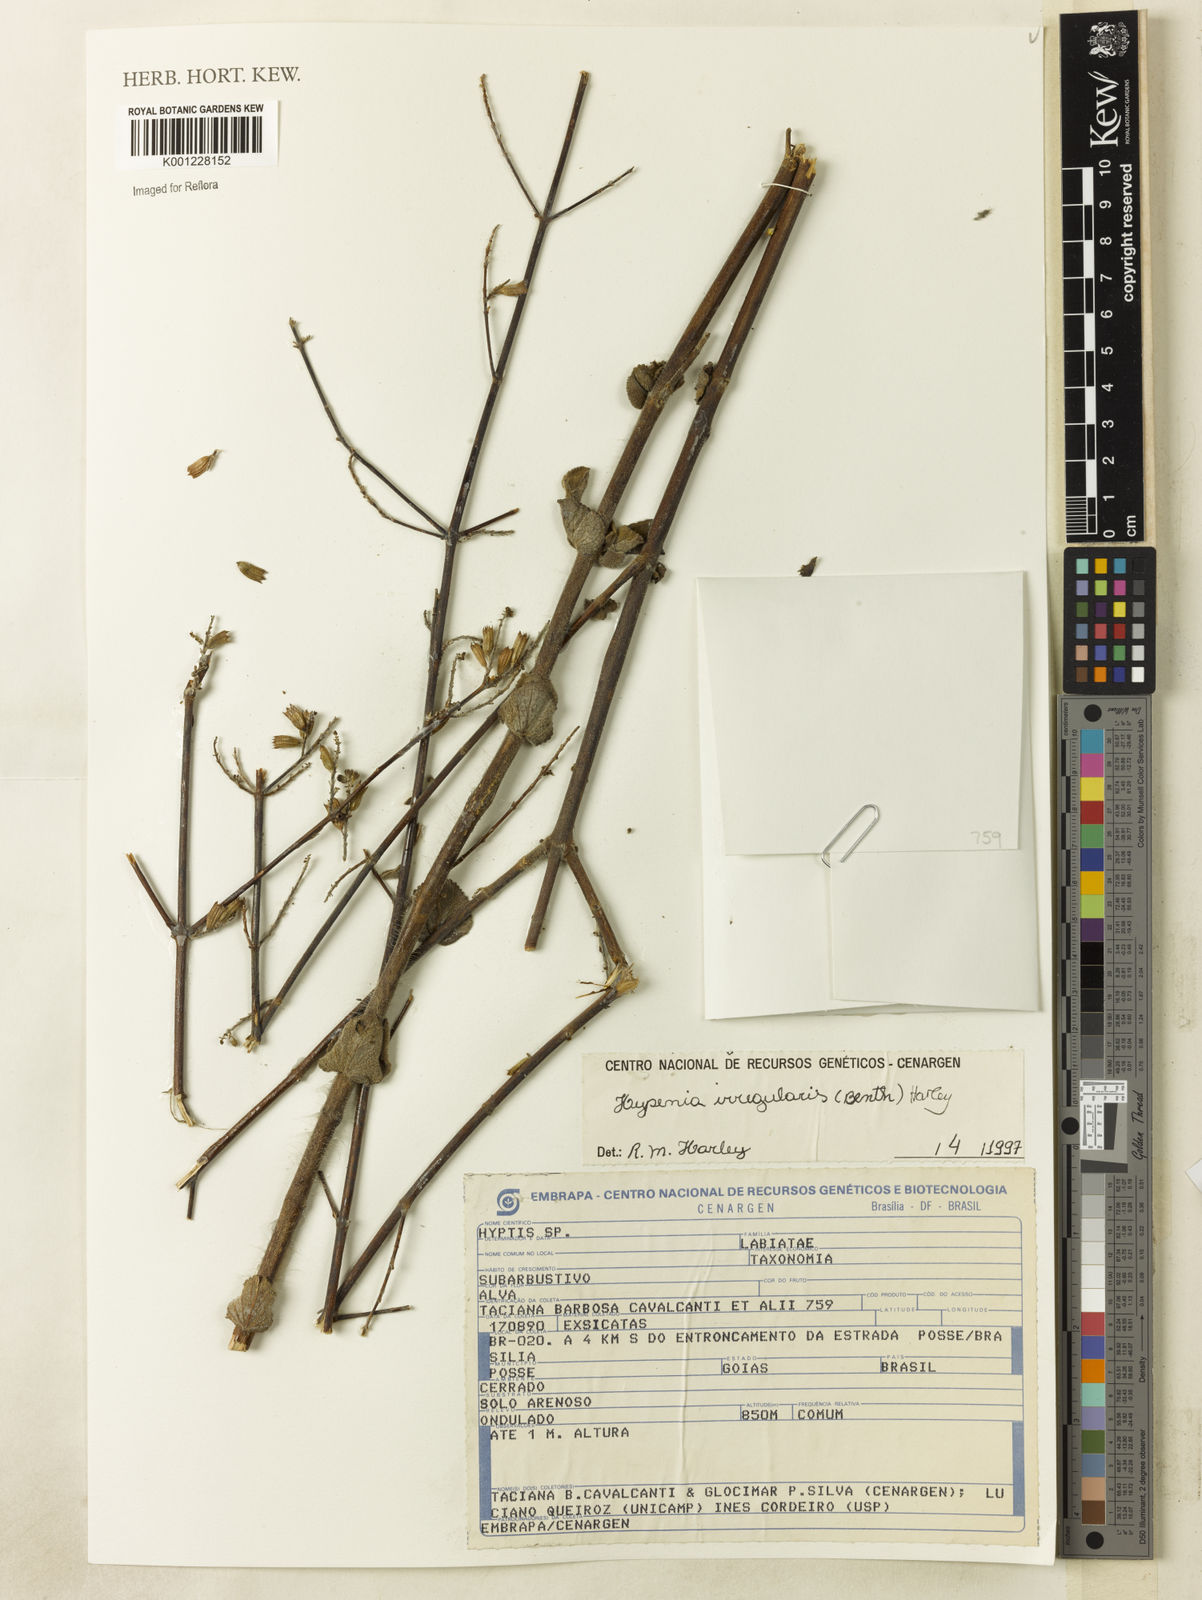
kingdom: Plantae
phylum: Tracheophyta
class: Magnoliopsida
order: Lamiales
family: Lamiaceae
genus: Hypenia
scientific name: Hypenia irregularis
